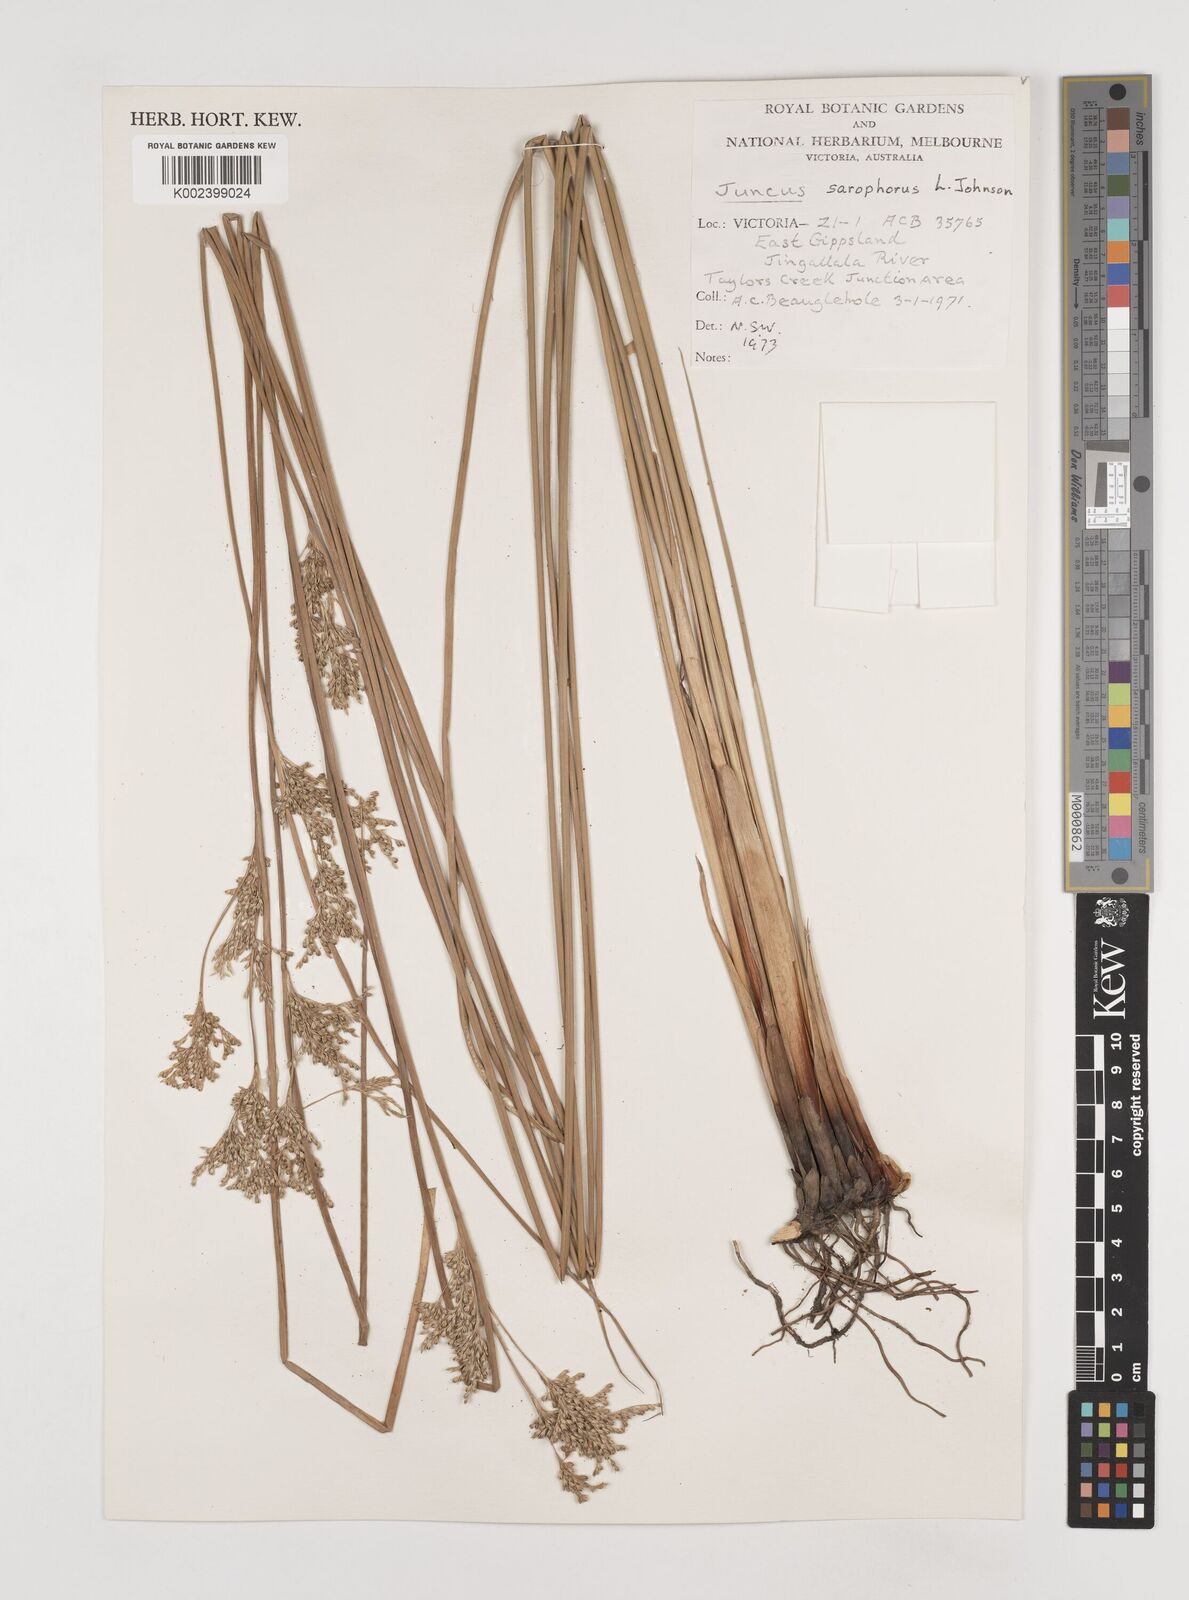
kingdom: Plantae
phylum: Tracheophyta
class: Liliopsida
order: Poales
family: Juncaceae
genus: Juncus
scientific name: Juncus sarophorus
